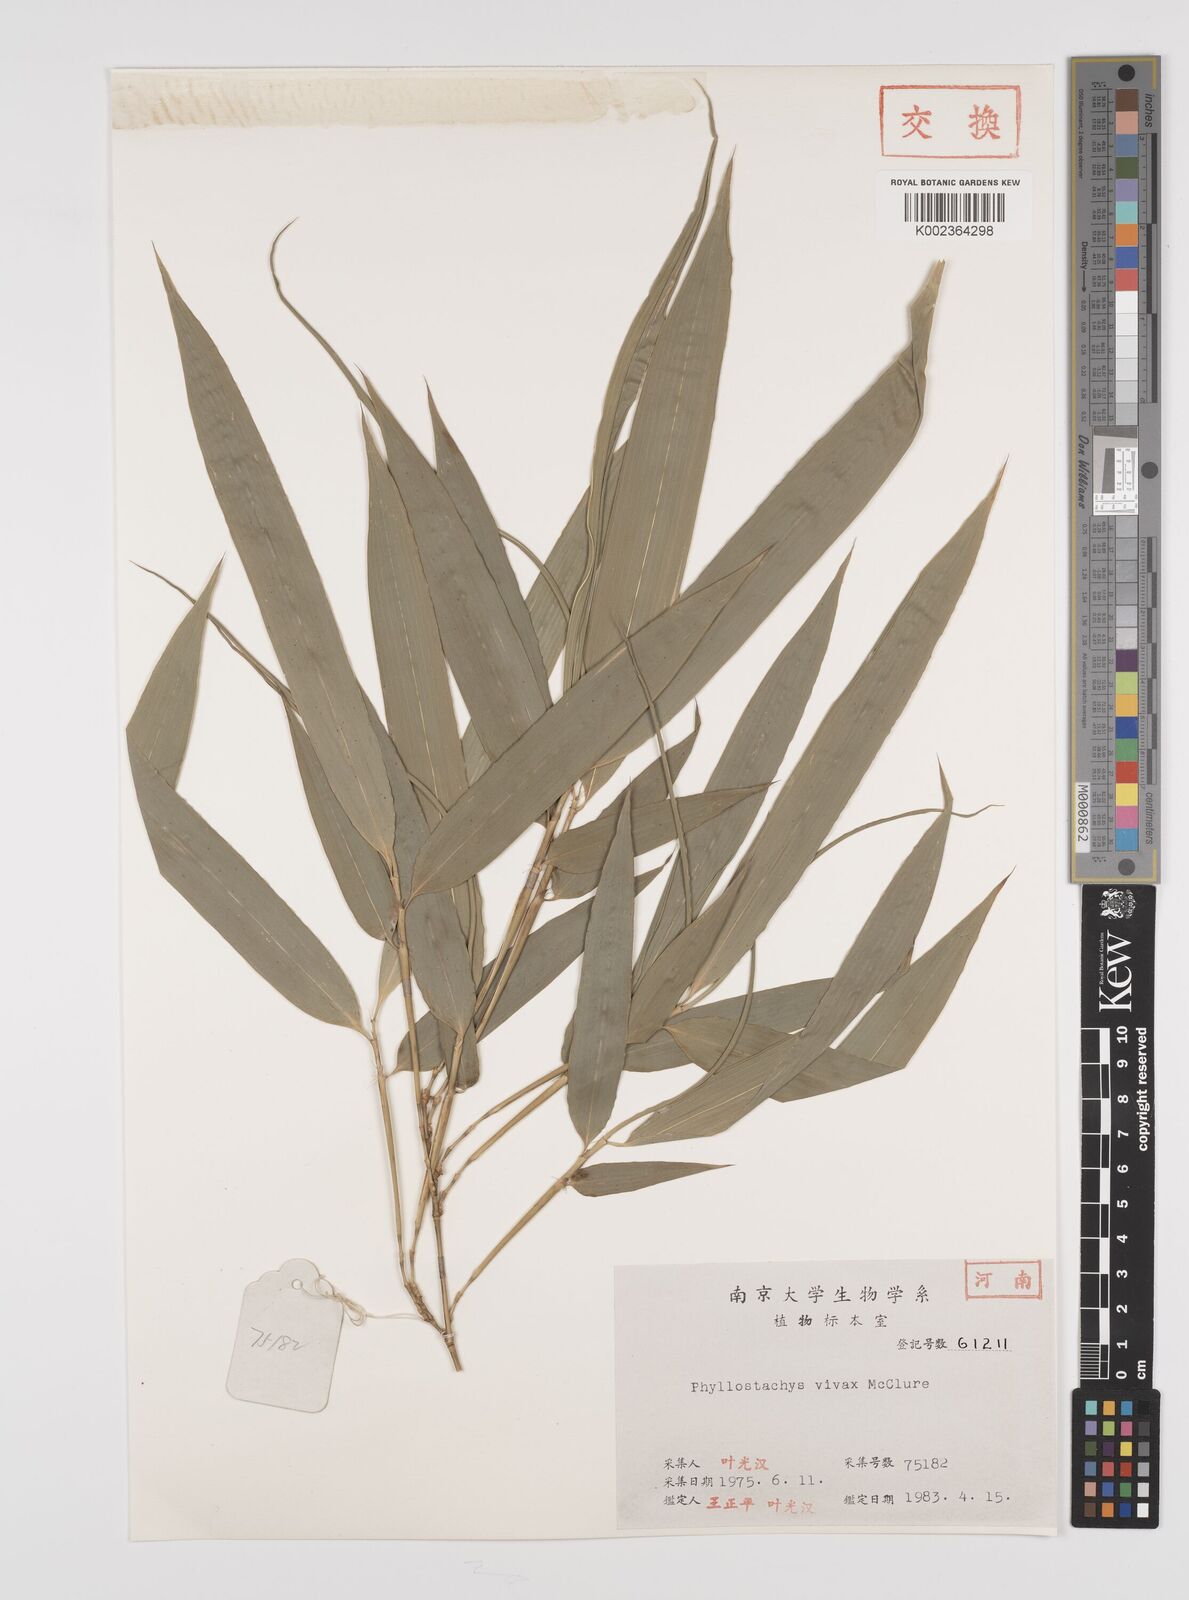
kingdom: Plantae
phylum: Tracheophyta
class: Liliopsida
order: Poales
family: Poaceae
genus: Phyllostachys
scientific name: Phyllostachys vivax
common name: Smooth-sheath bamboo
